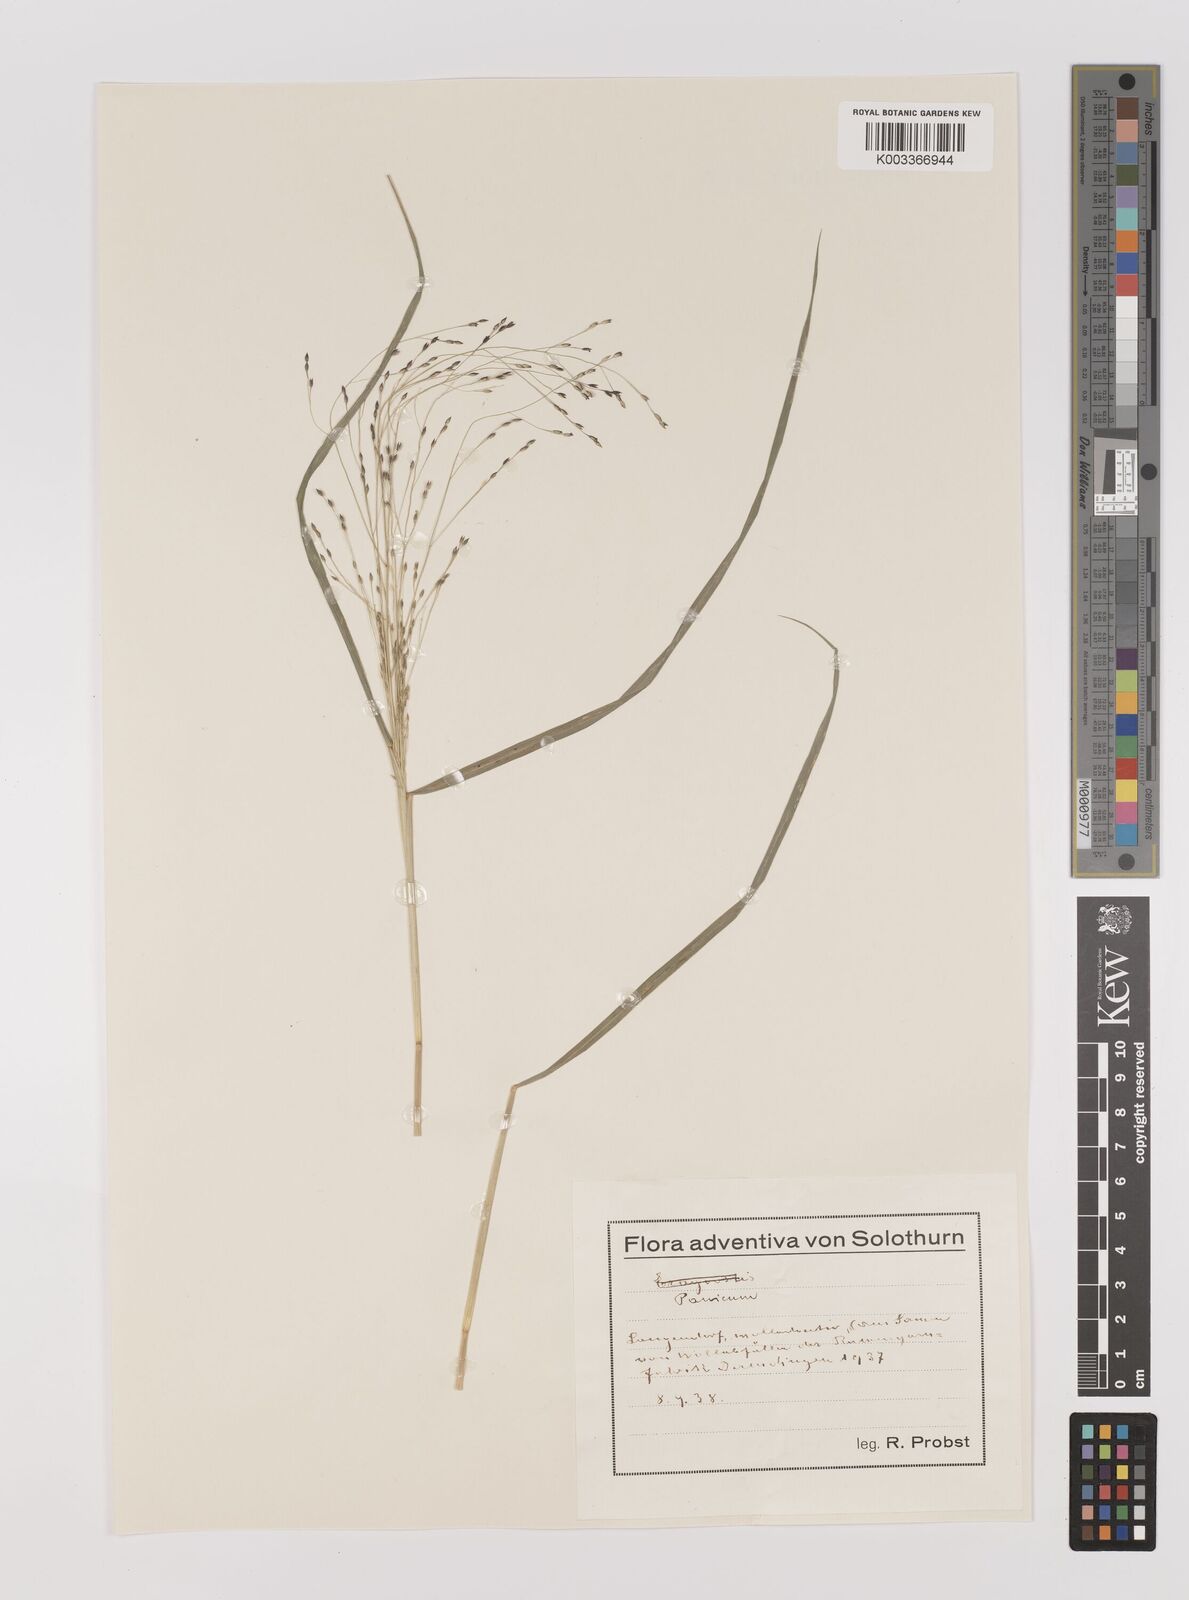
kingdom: Plantae
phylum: Tracheophyta
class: Liliopsida
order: Poales
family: Poaceae
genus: Panicum
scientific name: Panicum decompositum
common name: Australian millet
